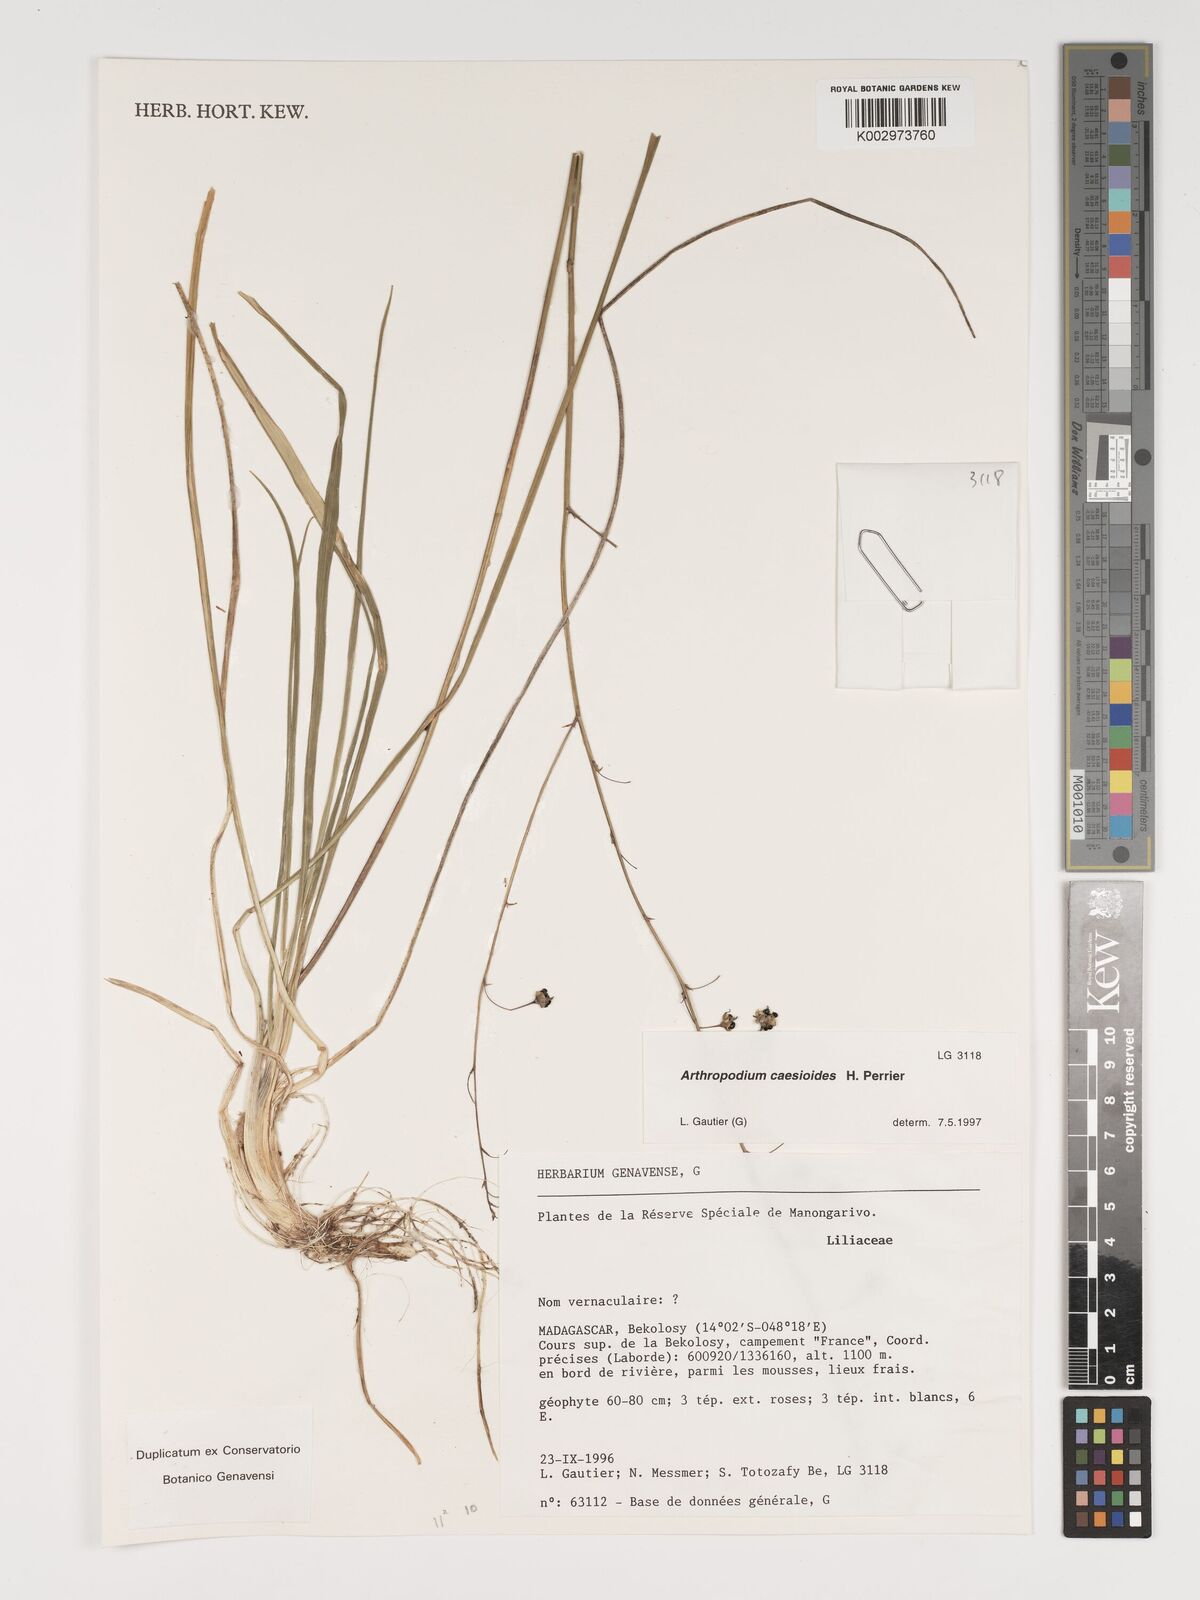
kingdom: Plantae
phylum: Tracheophyta
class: Liliopsida
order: Asparagales
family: Asparagaceae
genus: Arthropodium
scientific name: Arthropodium caesioides
